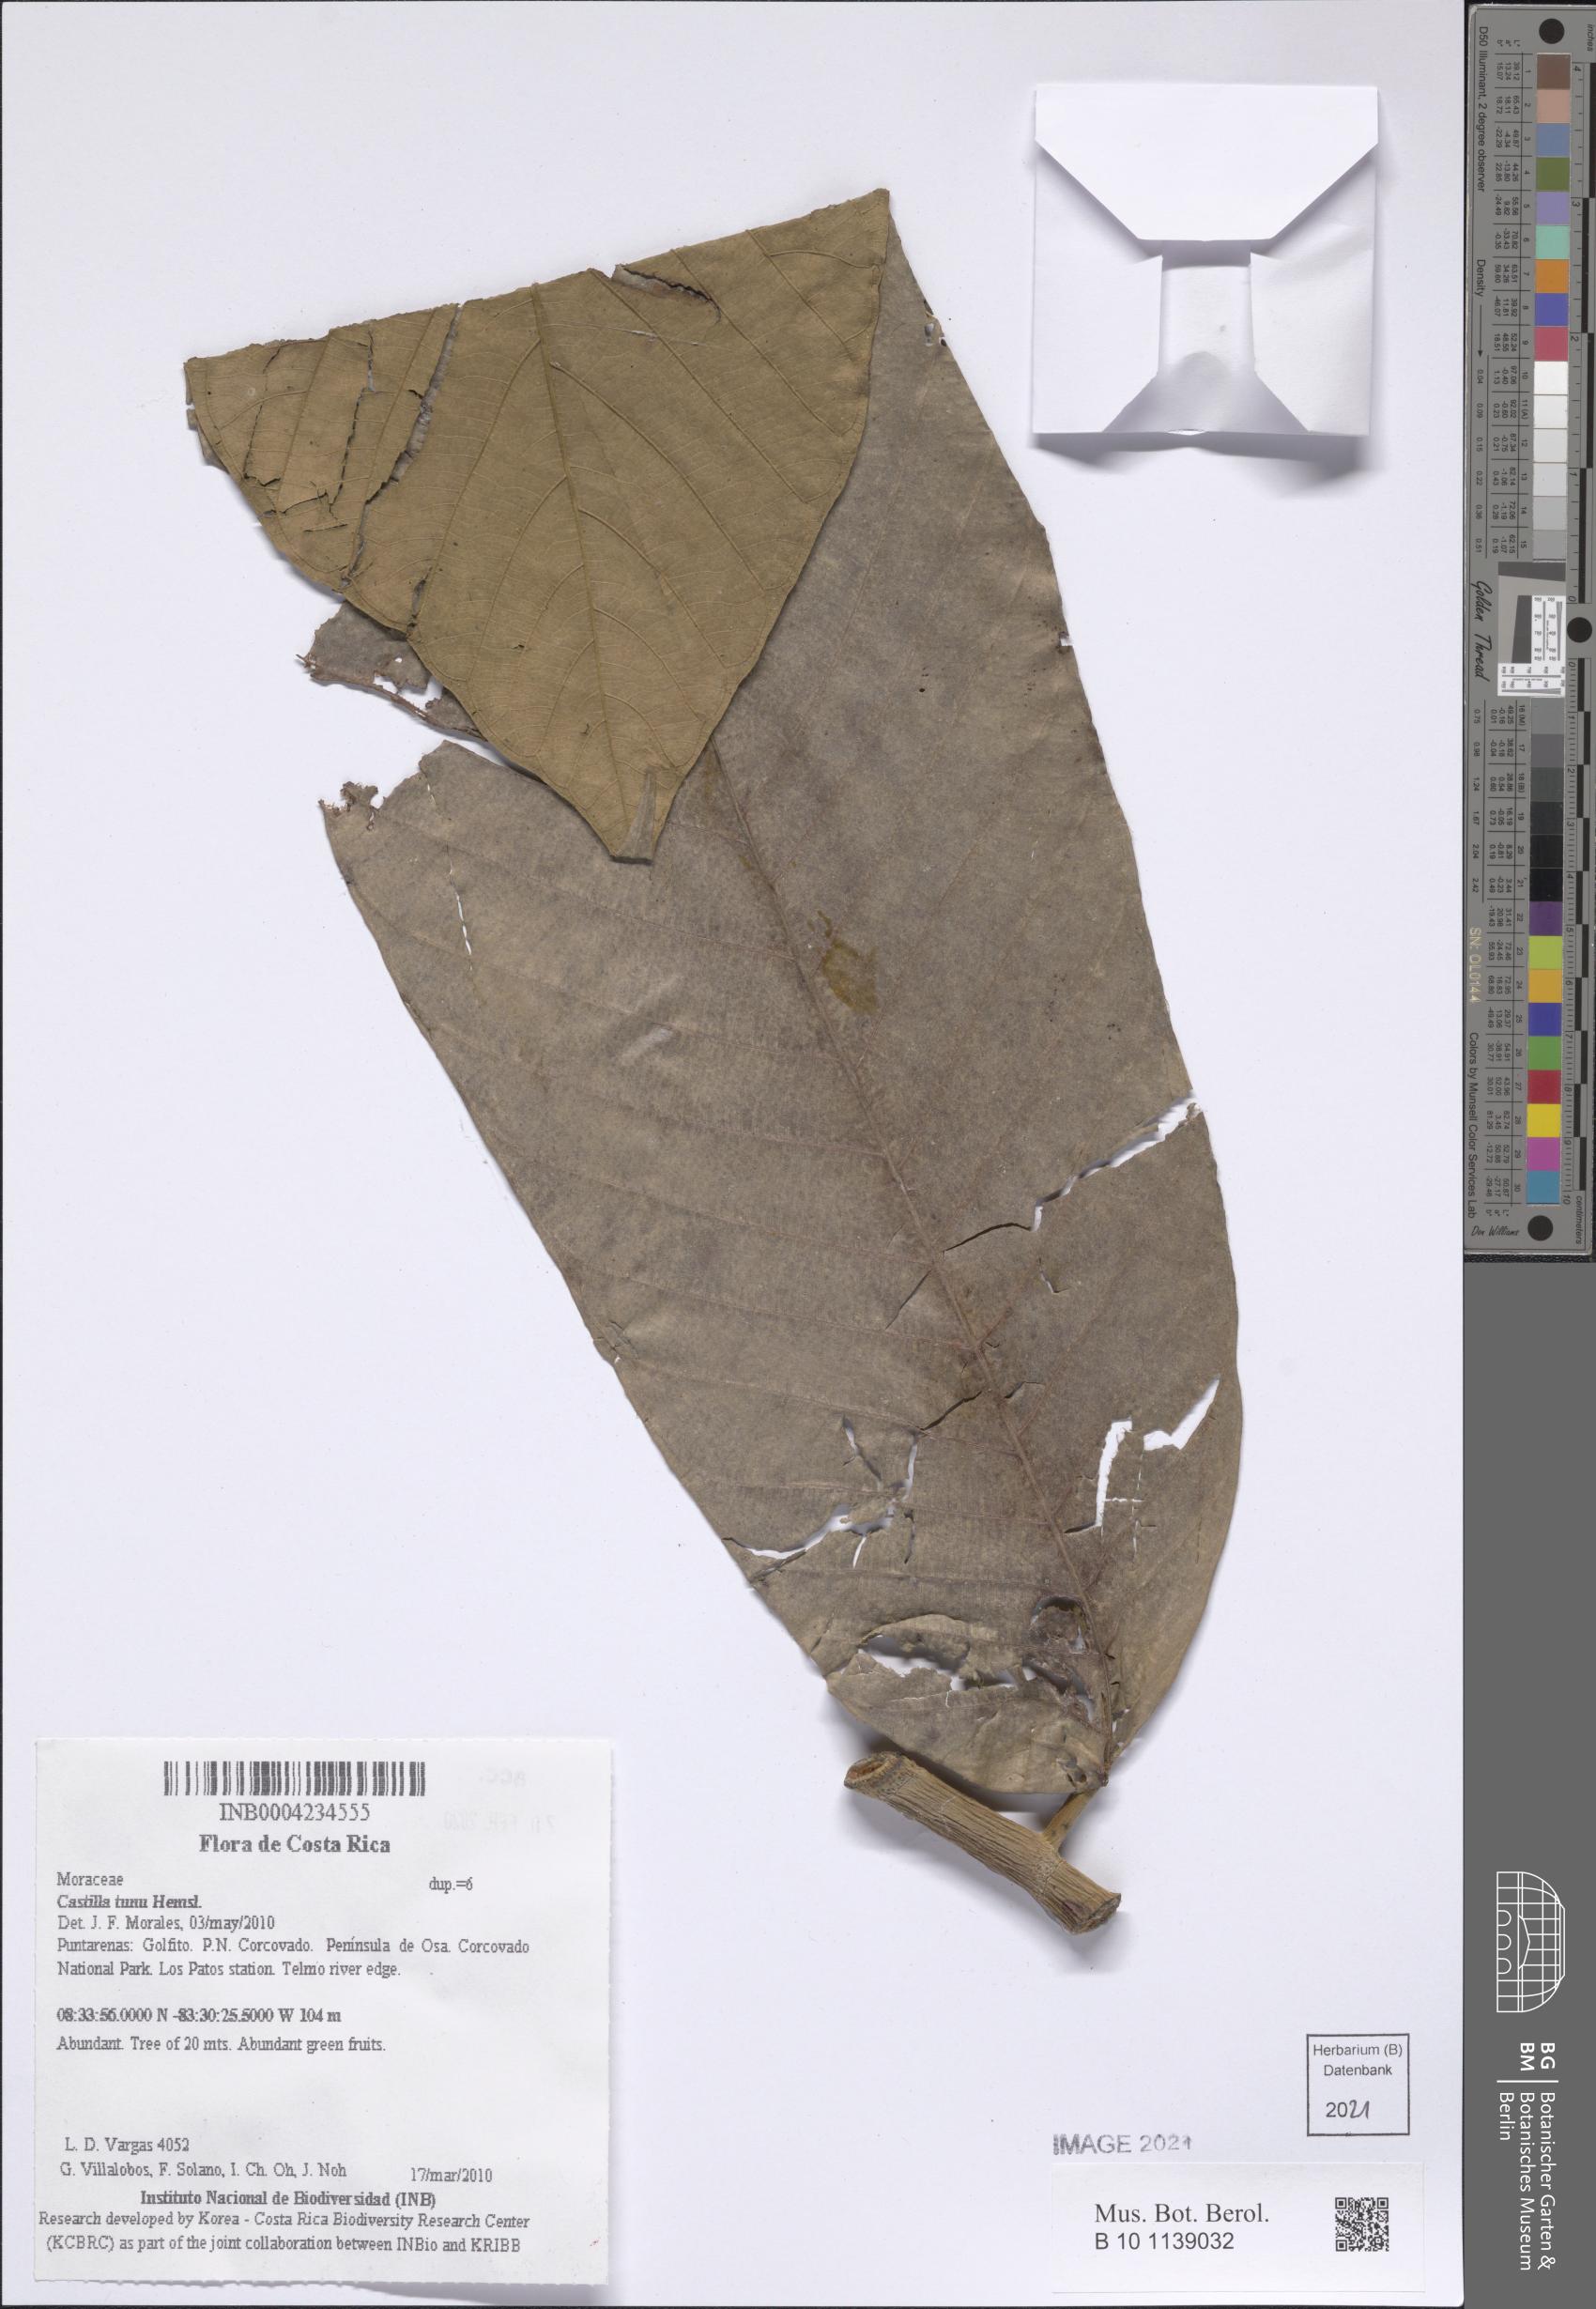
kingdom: Plantae
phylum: Tracheophyta
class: Magnoliopsida
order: Rosales
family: Moraceae
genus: Castilla
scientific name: Castilla tunu
